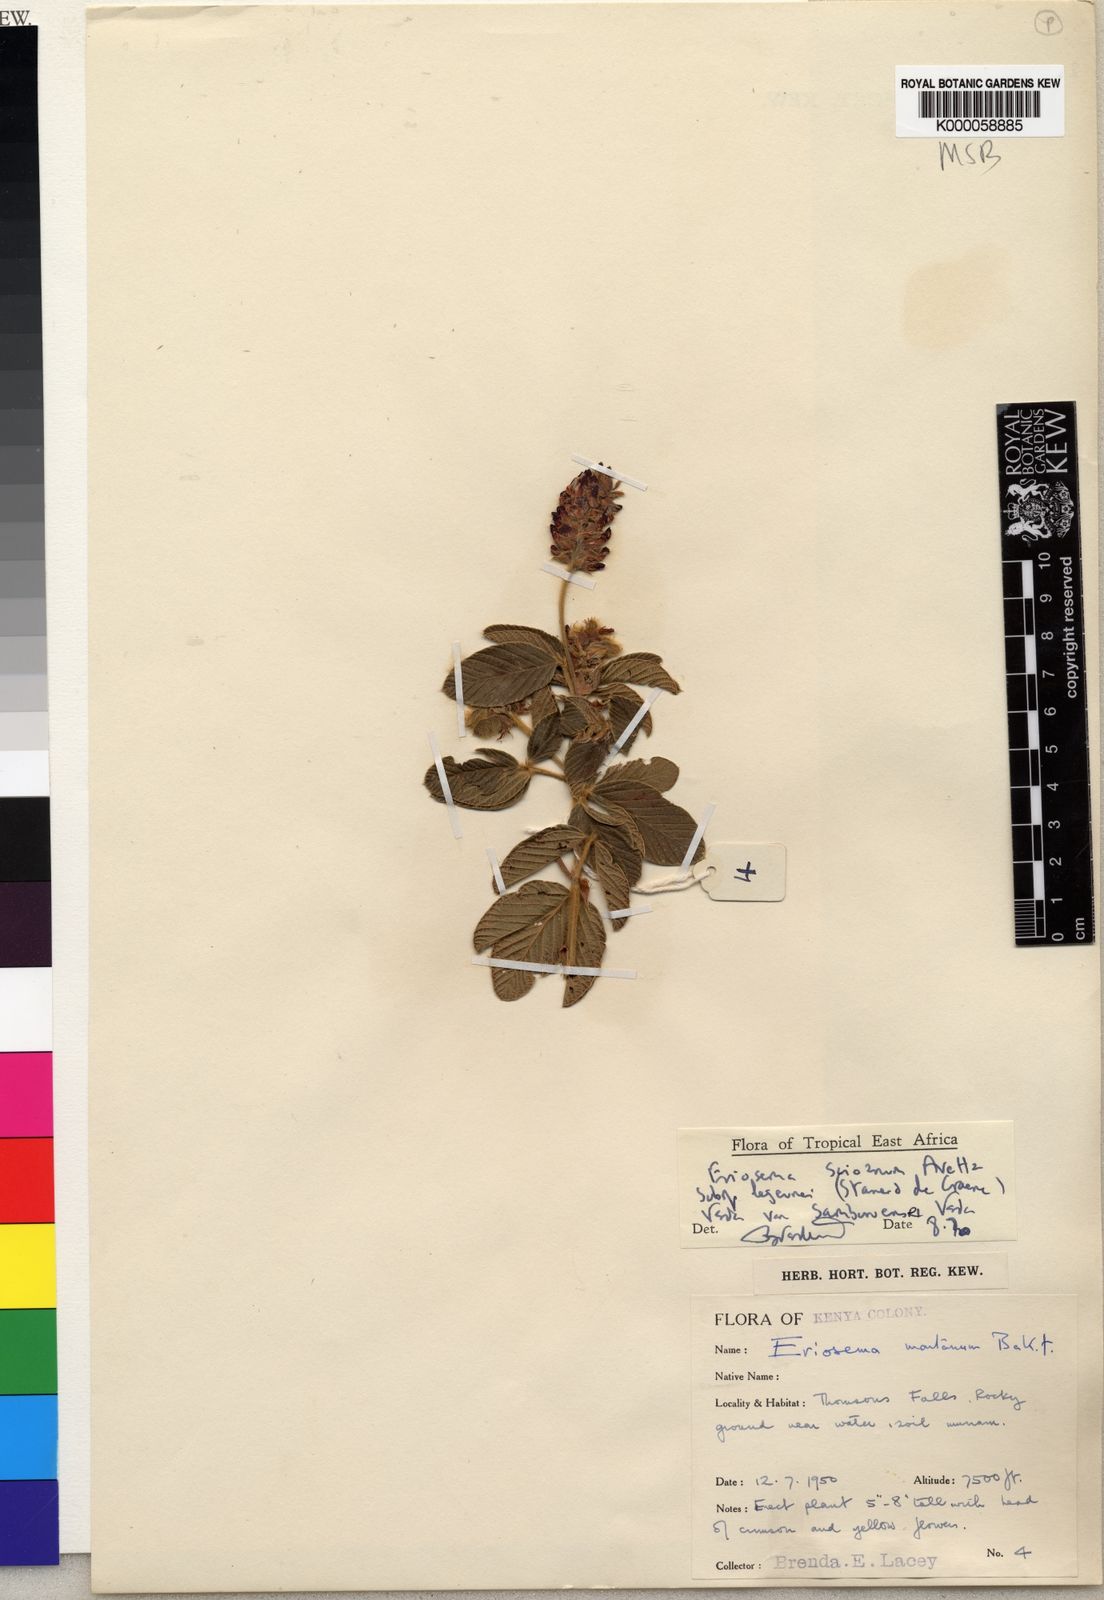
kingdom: Plantae
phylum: Tracheophyta
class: Magnoliopsida
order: Fabales
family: Fabaceae
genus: Eriosema
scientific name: Eriosema scioanum
